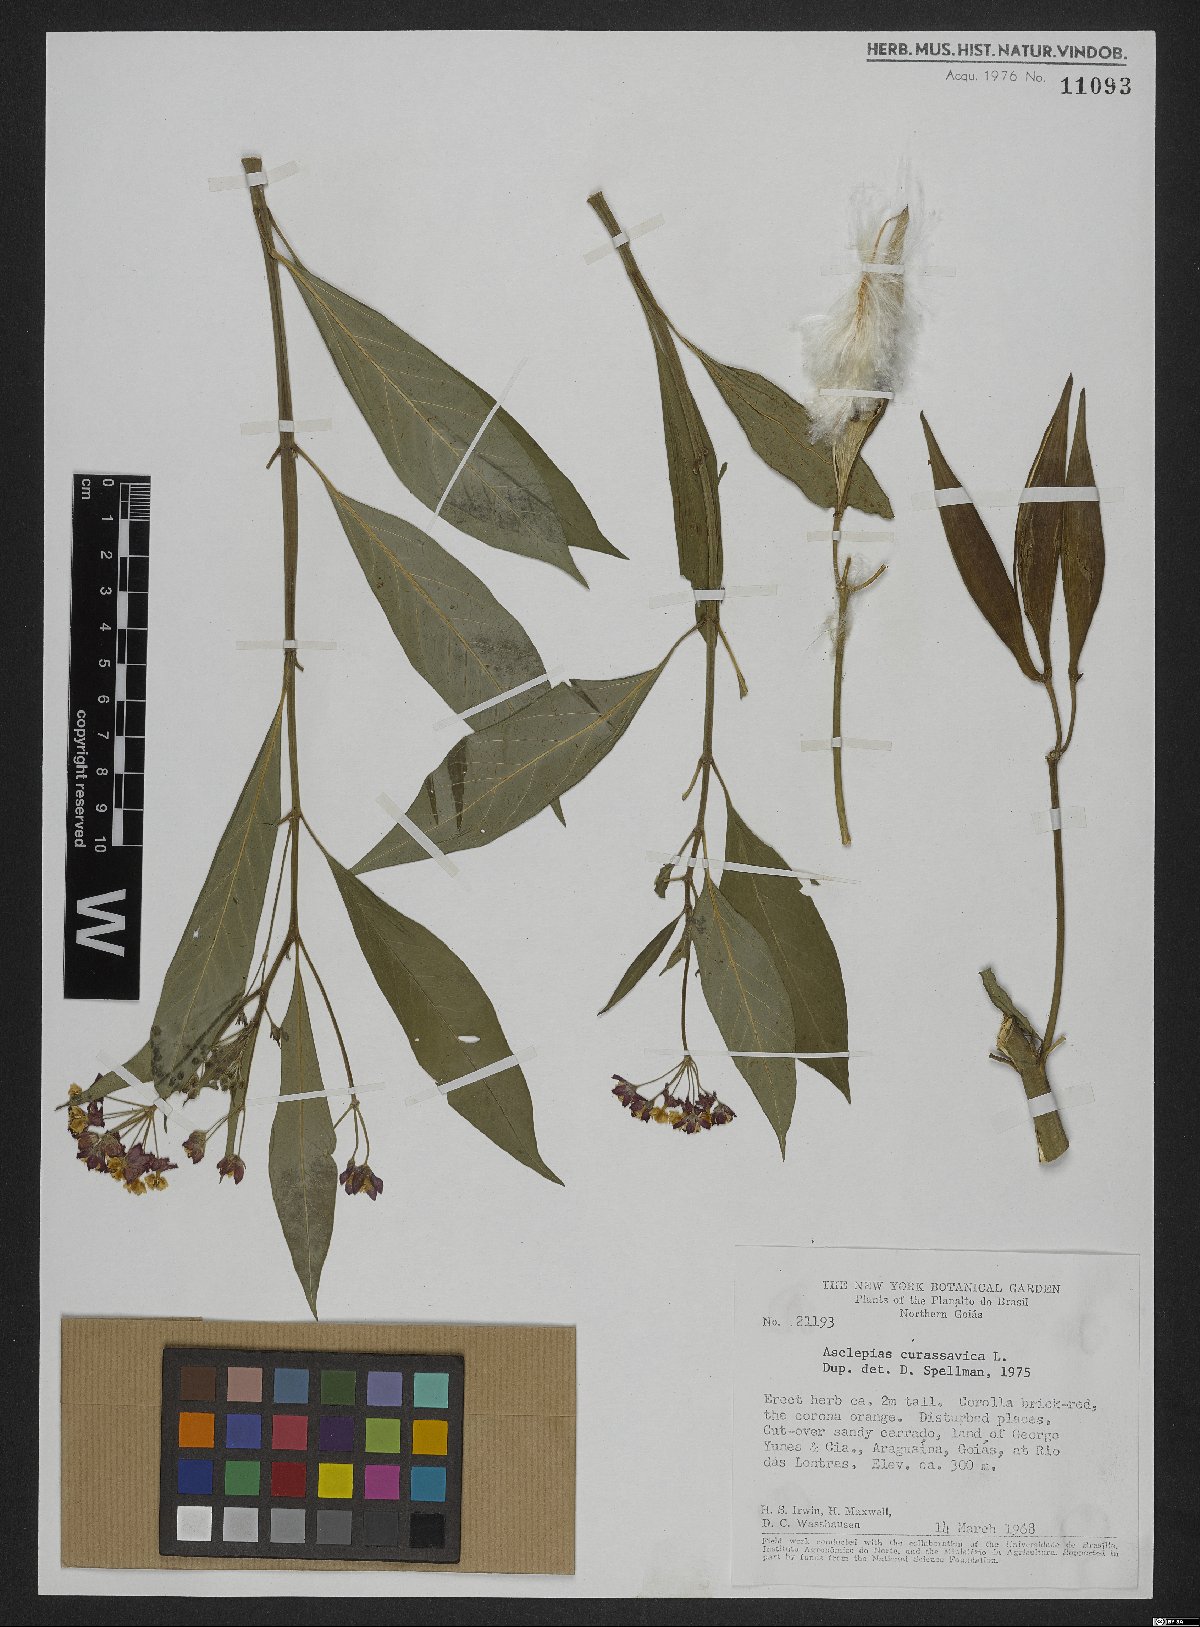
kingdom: Plantae
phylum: Tracheophyta
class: Magnoliopsida
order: Gentianales
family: Apocynaceae
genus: Asclepias
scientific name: Asclepias curassavica
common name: Bloodflower
